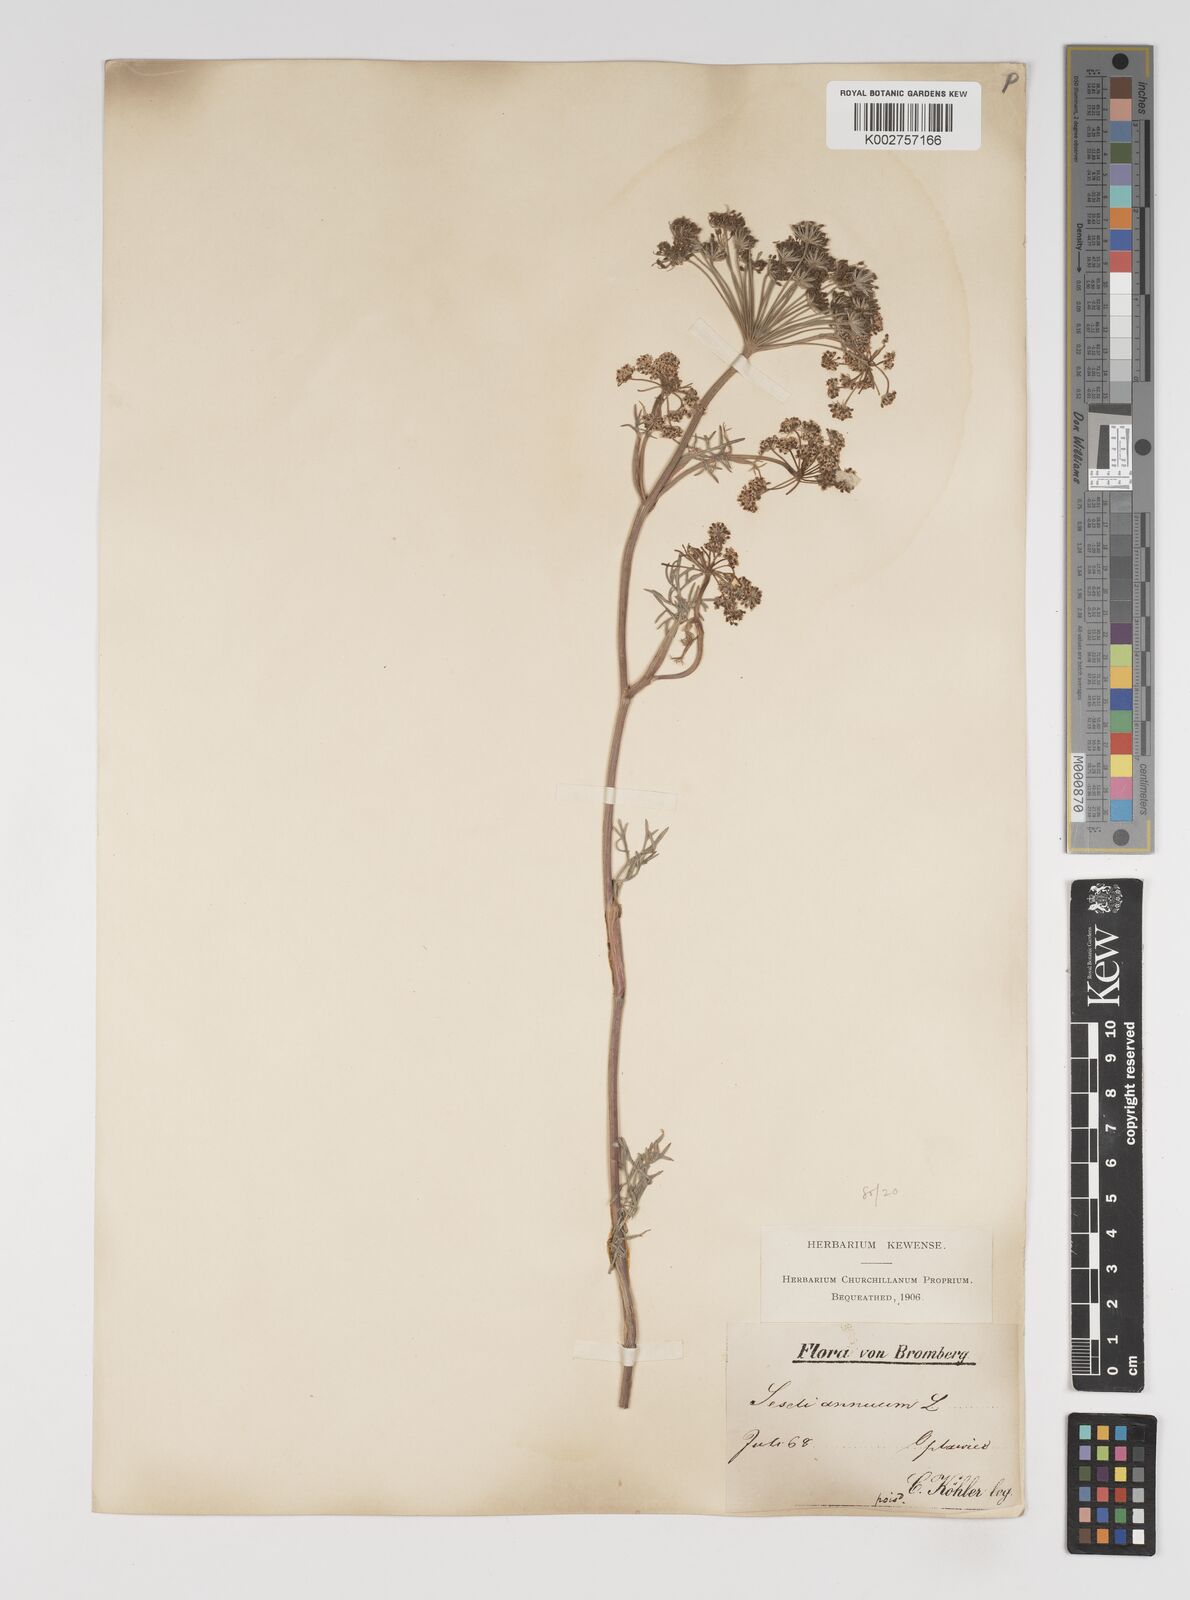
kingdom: Plantae
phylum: Tracheophyta
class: Magnoliopsida
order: Apiales
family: Apiaceae
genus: Seseli
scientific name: Seseli annuum
